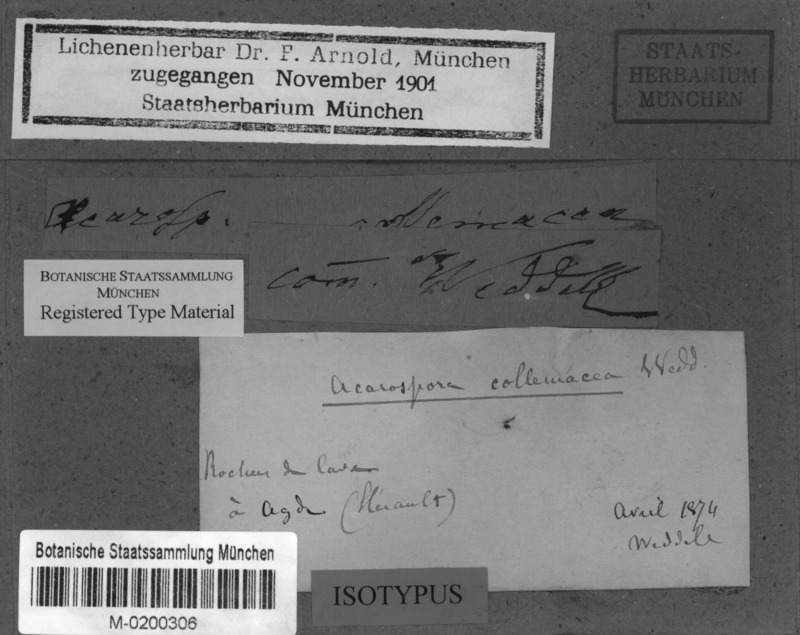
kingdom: Fungi
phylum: Ascomycota
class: Lichinomycetes
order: Lichinales
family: Peltulaceae
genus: Peltula
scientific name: Peltula obscurans
